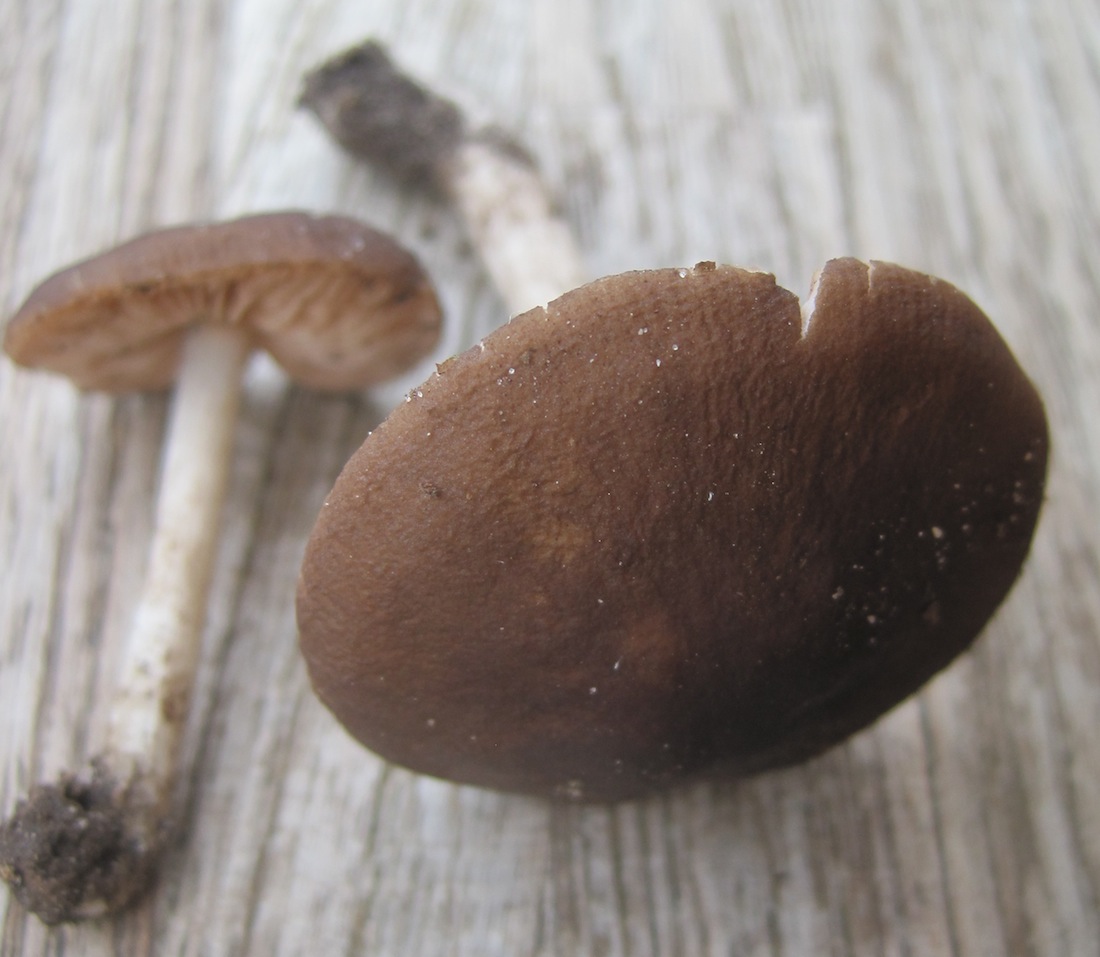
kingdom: Fungi
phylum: Basidiomycota
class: Agaricomycetes
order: Agaricales
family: Pluteaceae
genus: Pluteus
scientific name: Pluteus
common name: pudret skærmhat
